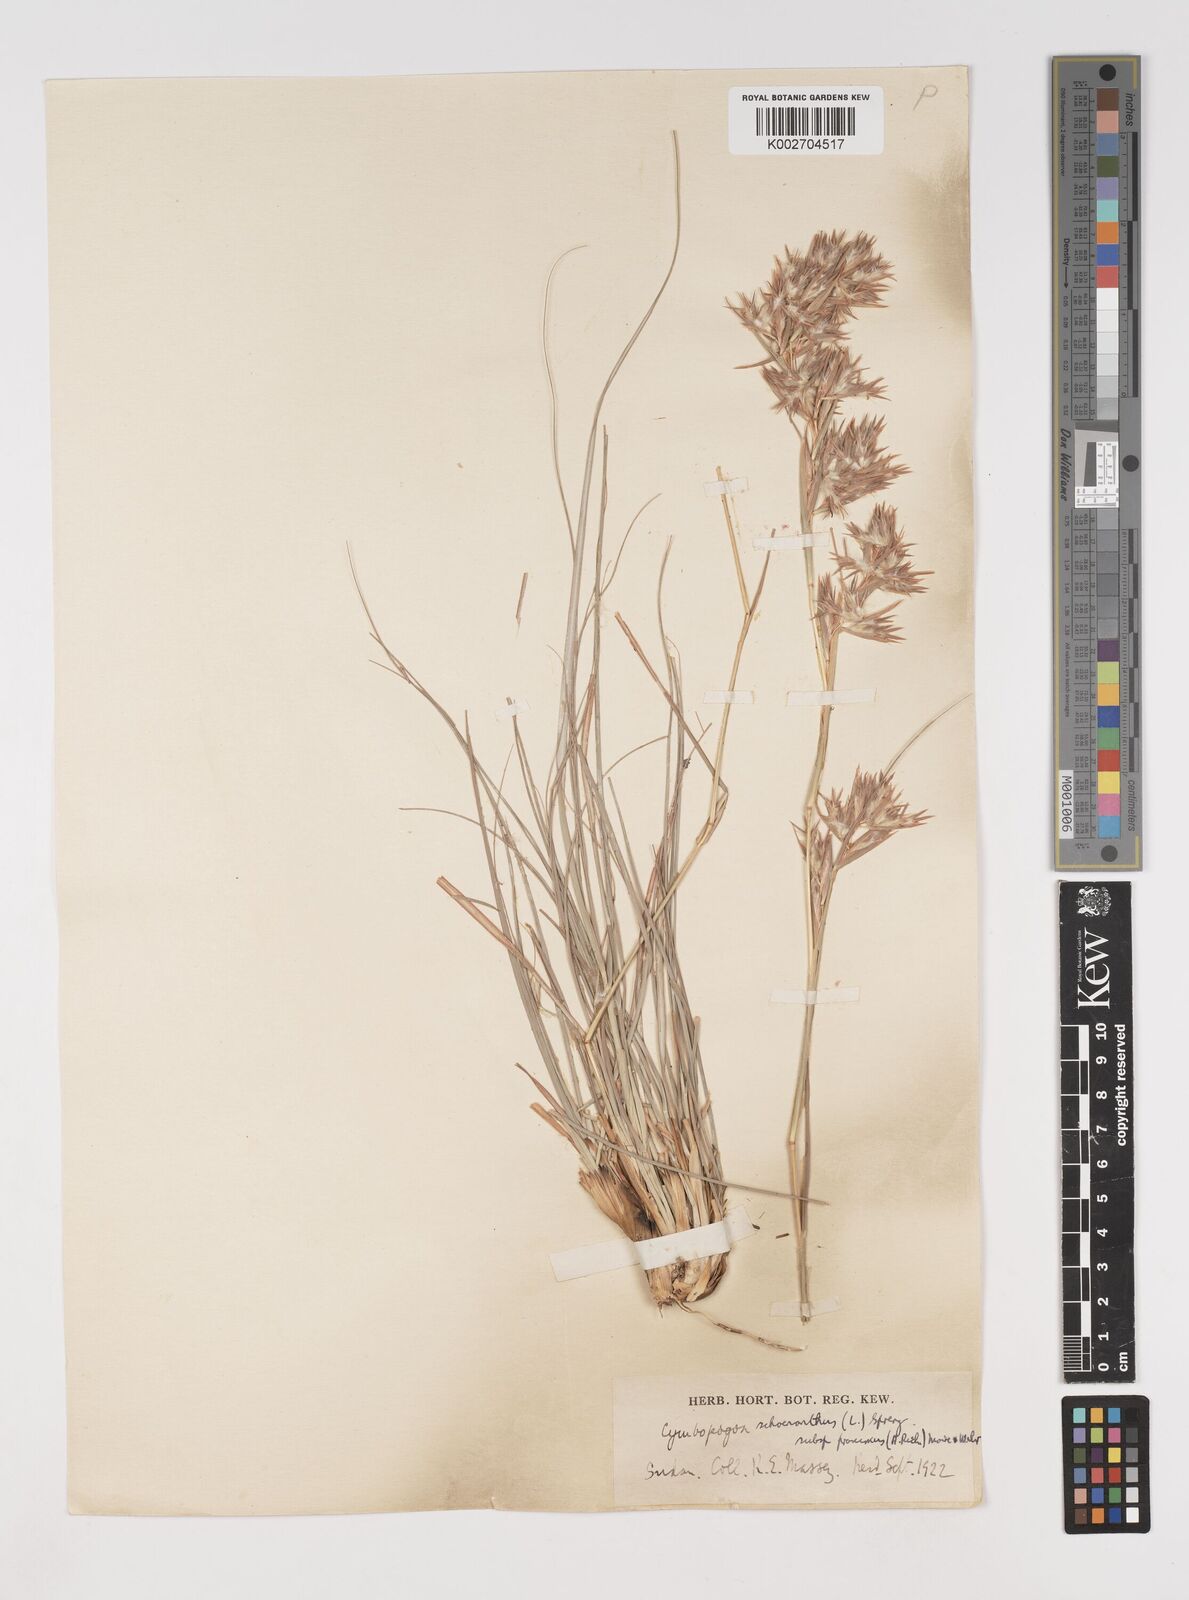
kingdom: Plantae
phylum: Tracheophyta
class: Liliopsida
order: Poales
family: Poaceae
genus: Cymbopogon
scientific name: Cymbopogon schoenanthus
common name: Geranium grass
